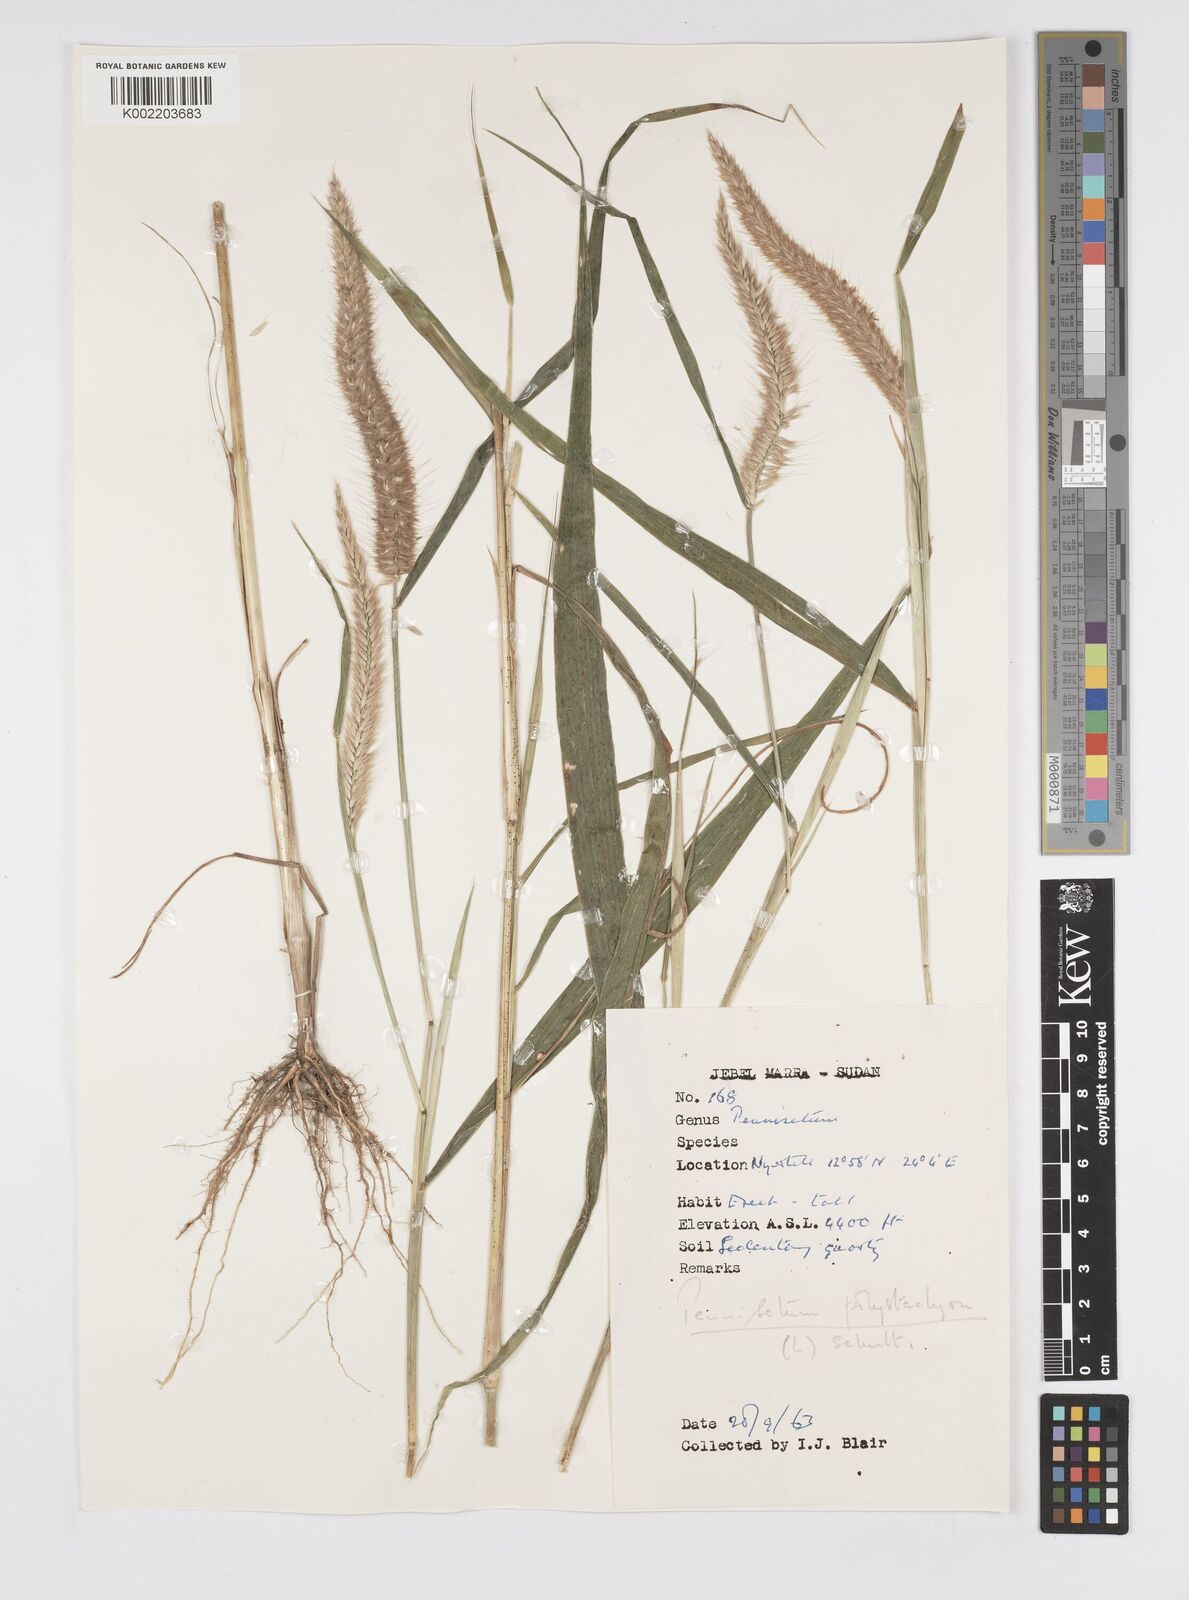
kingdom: Plantae
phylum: Tracheophyta
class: Liliopsida
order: Poales
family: Poaceae
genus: Setaria
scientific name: Setaria parviflora
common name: Knotroot bristle-grass
